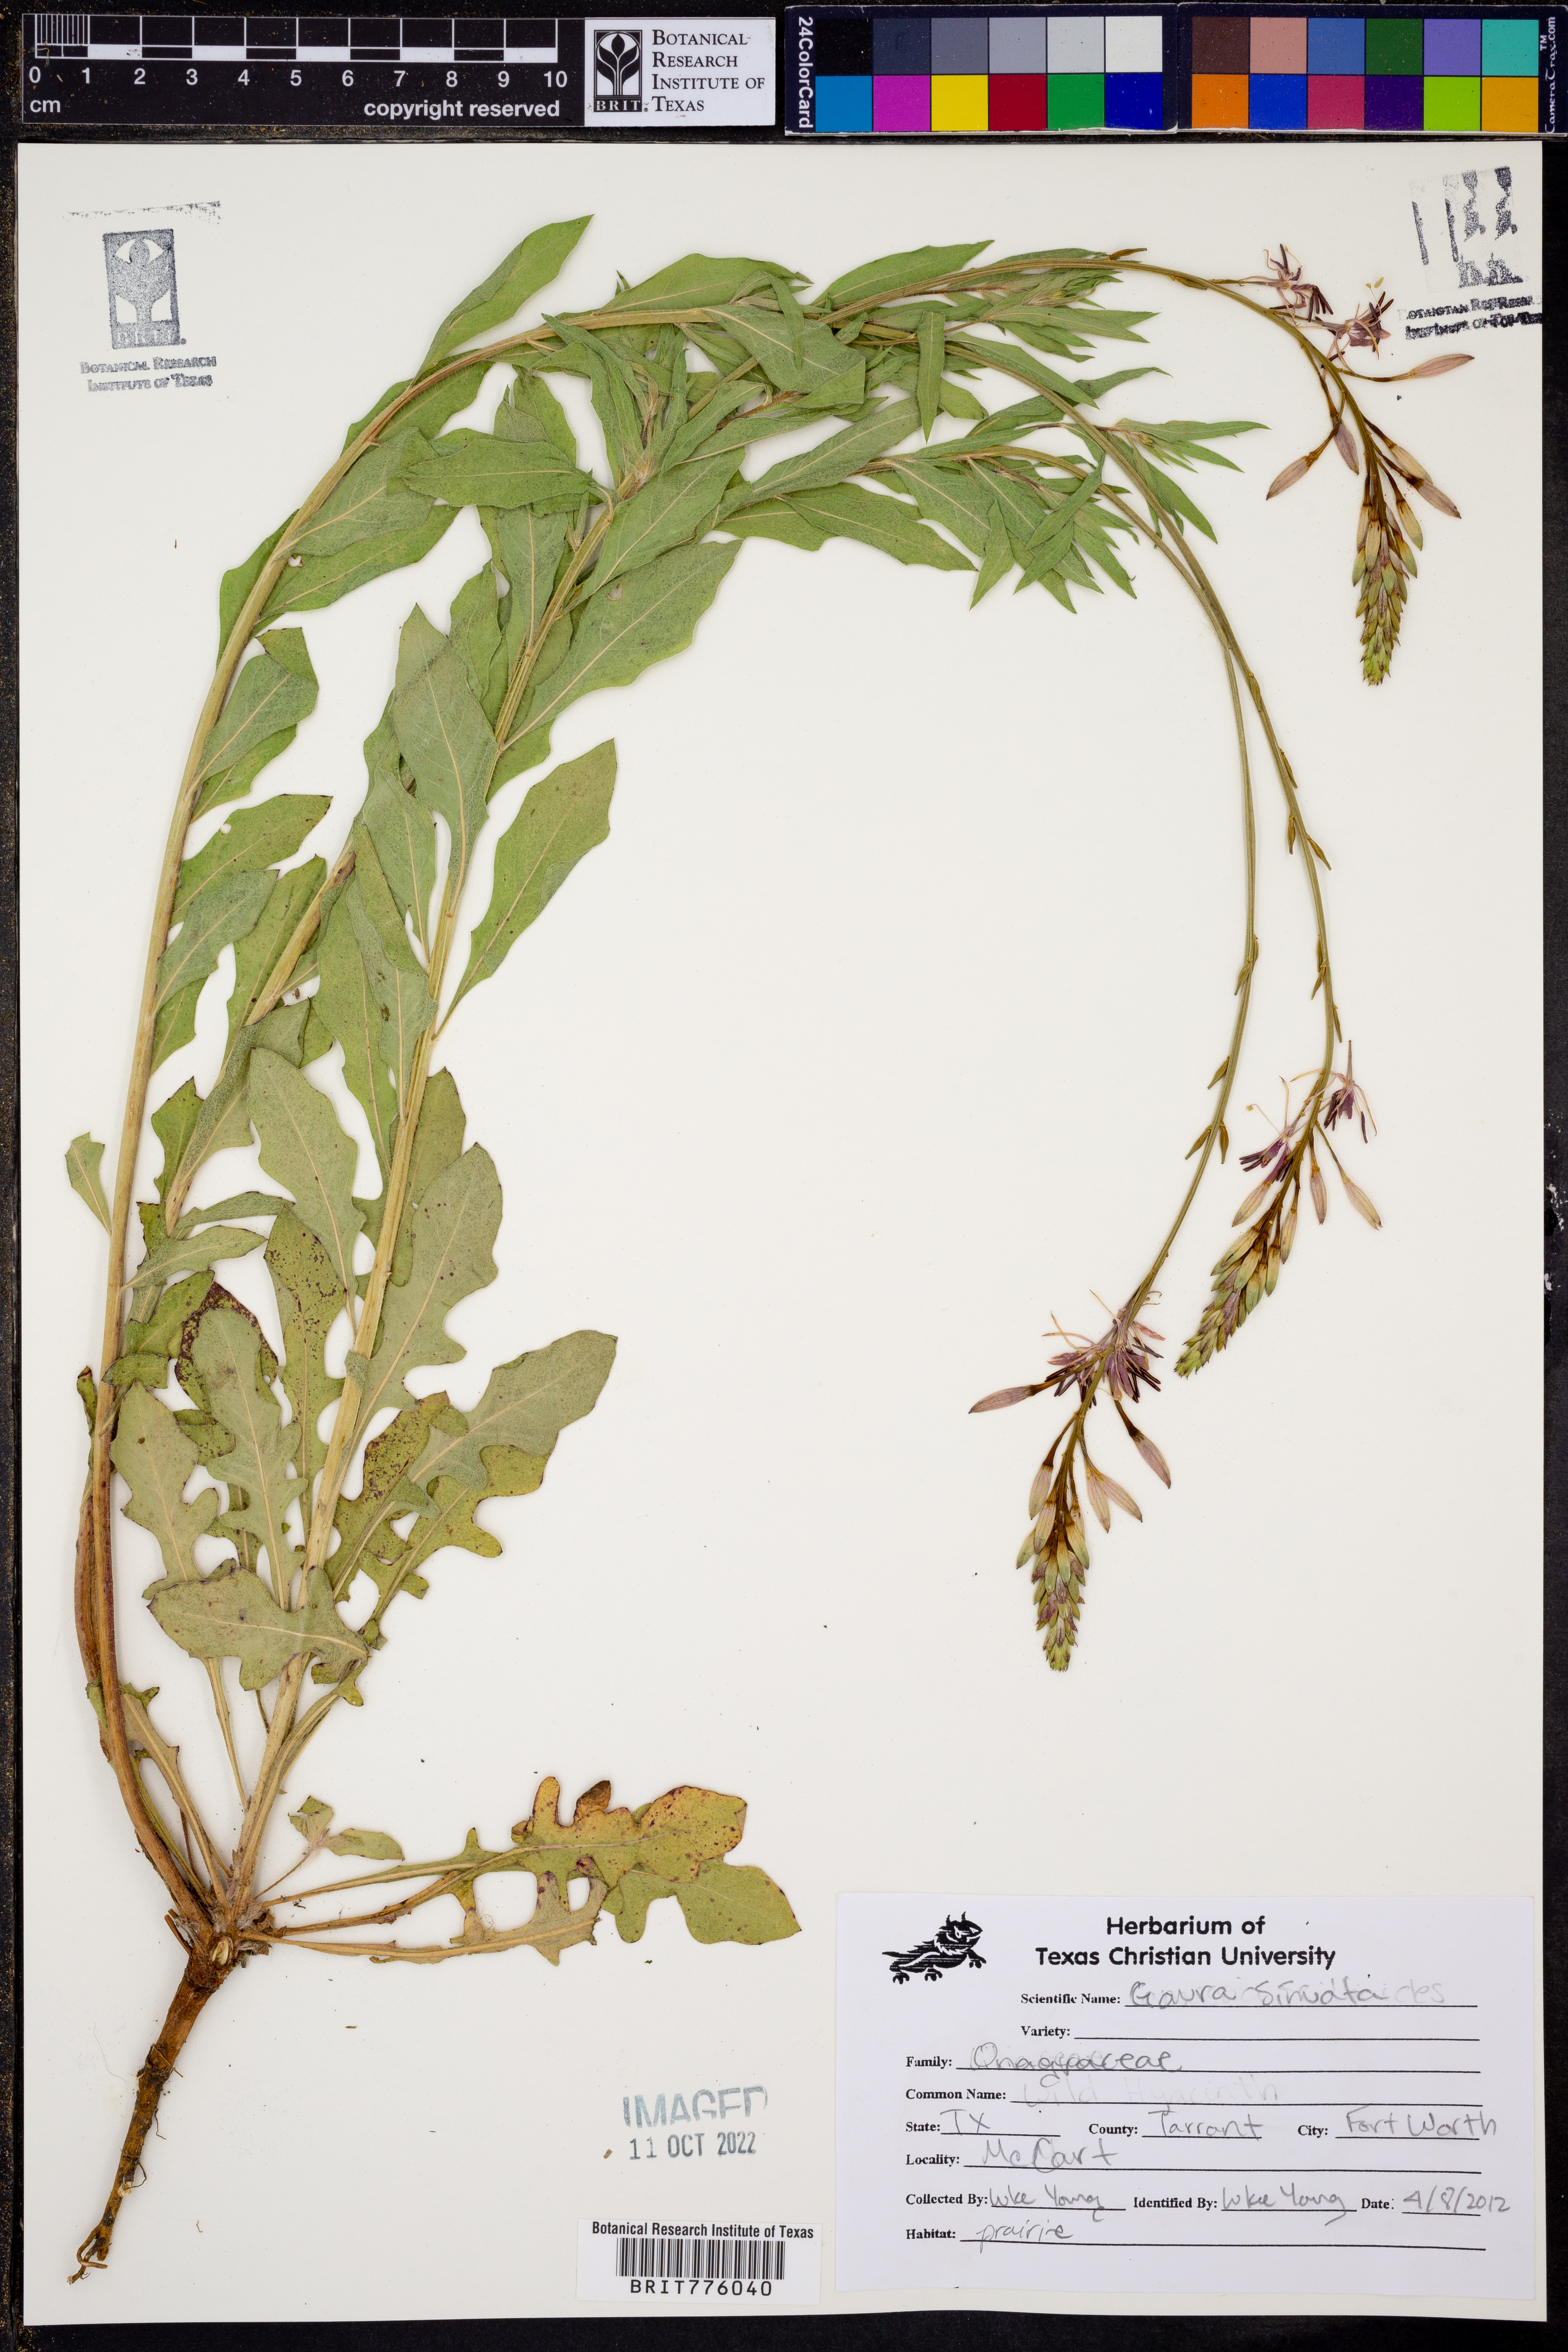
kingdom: Plantae
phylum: Tracheophyta
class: Magnoliopsida
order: Myrtales
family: Onagraceae
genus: Oenothera
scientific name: Oenothera sinuosa
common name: Wavyleaf beeblossom
